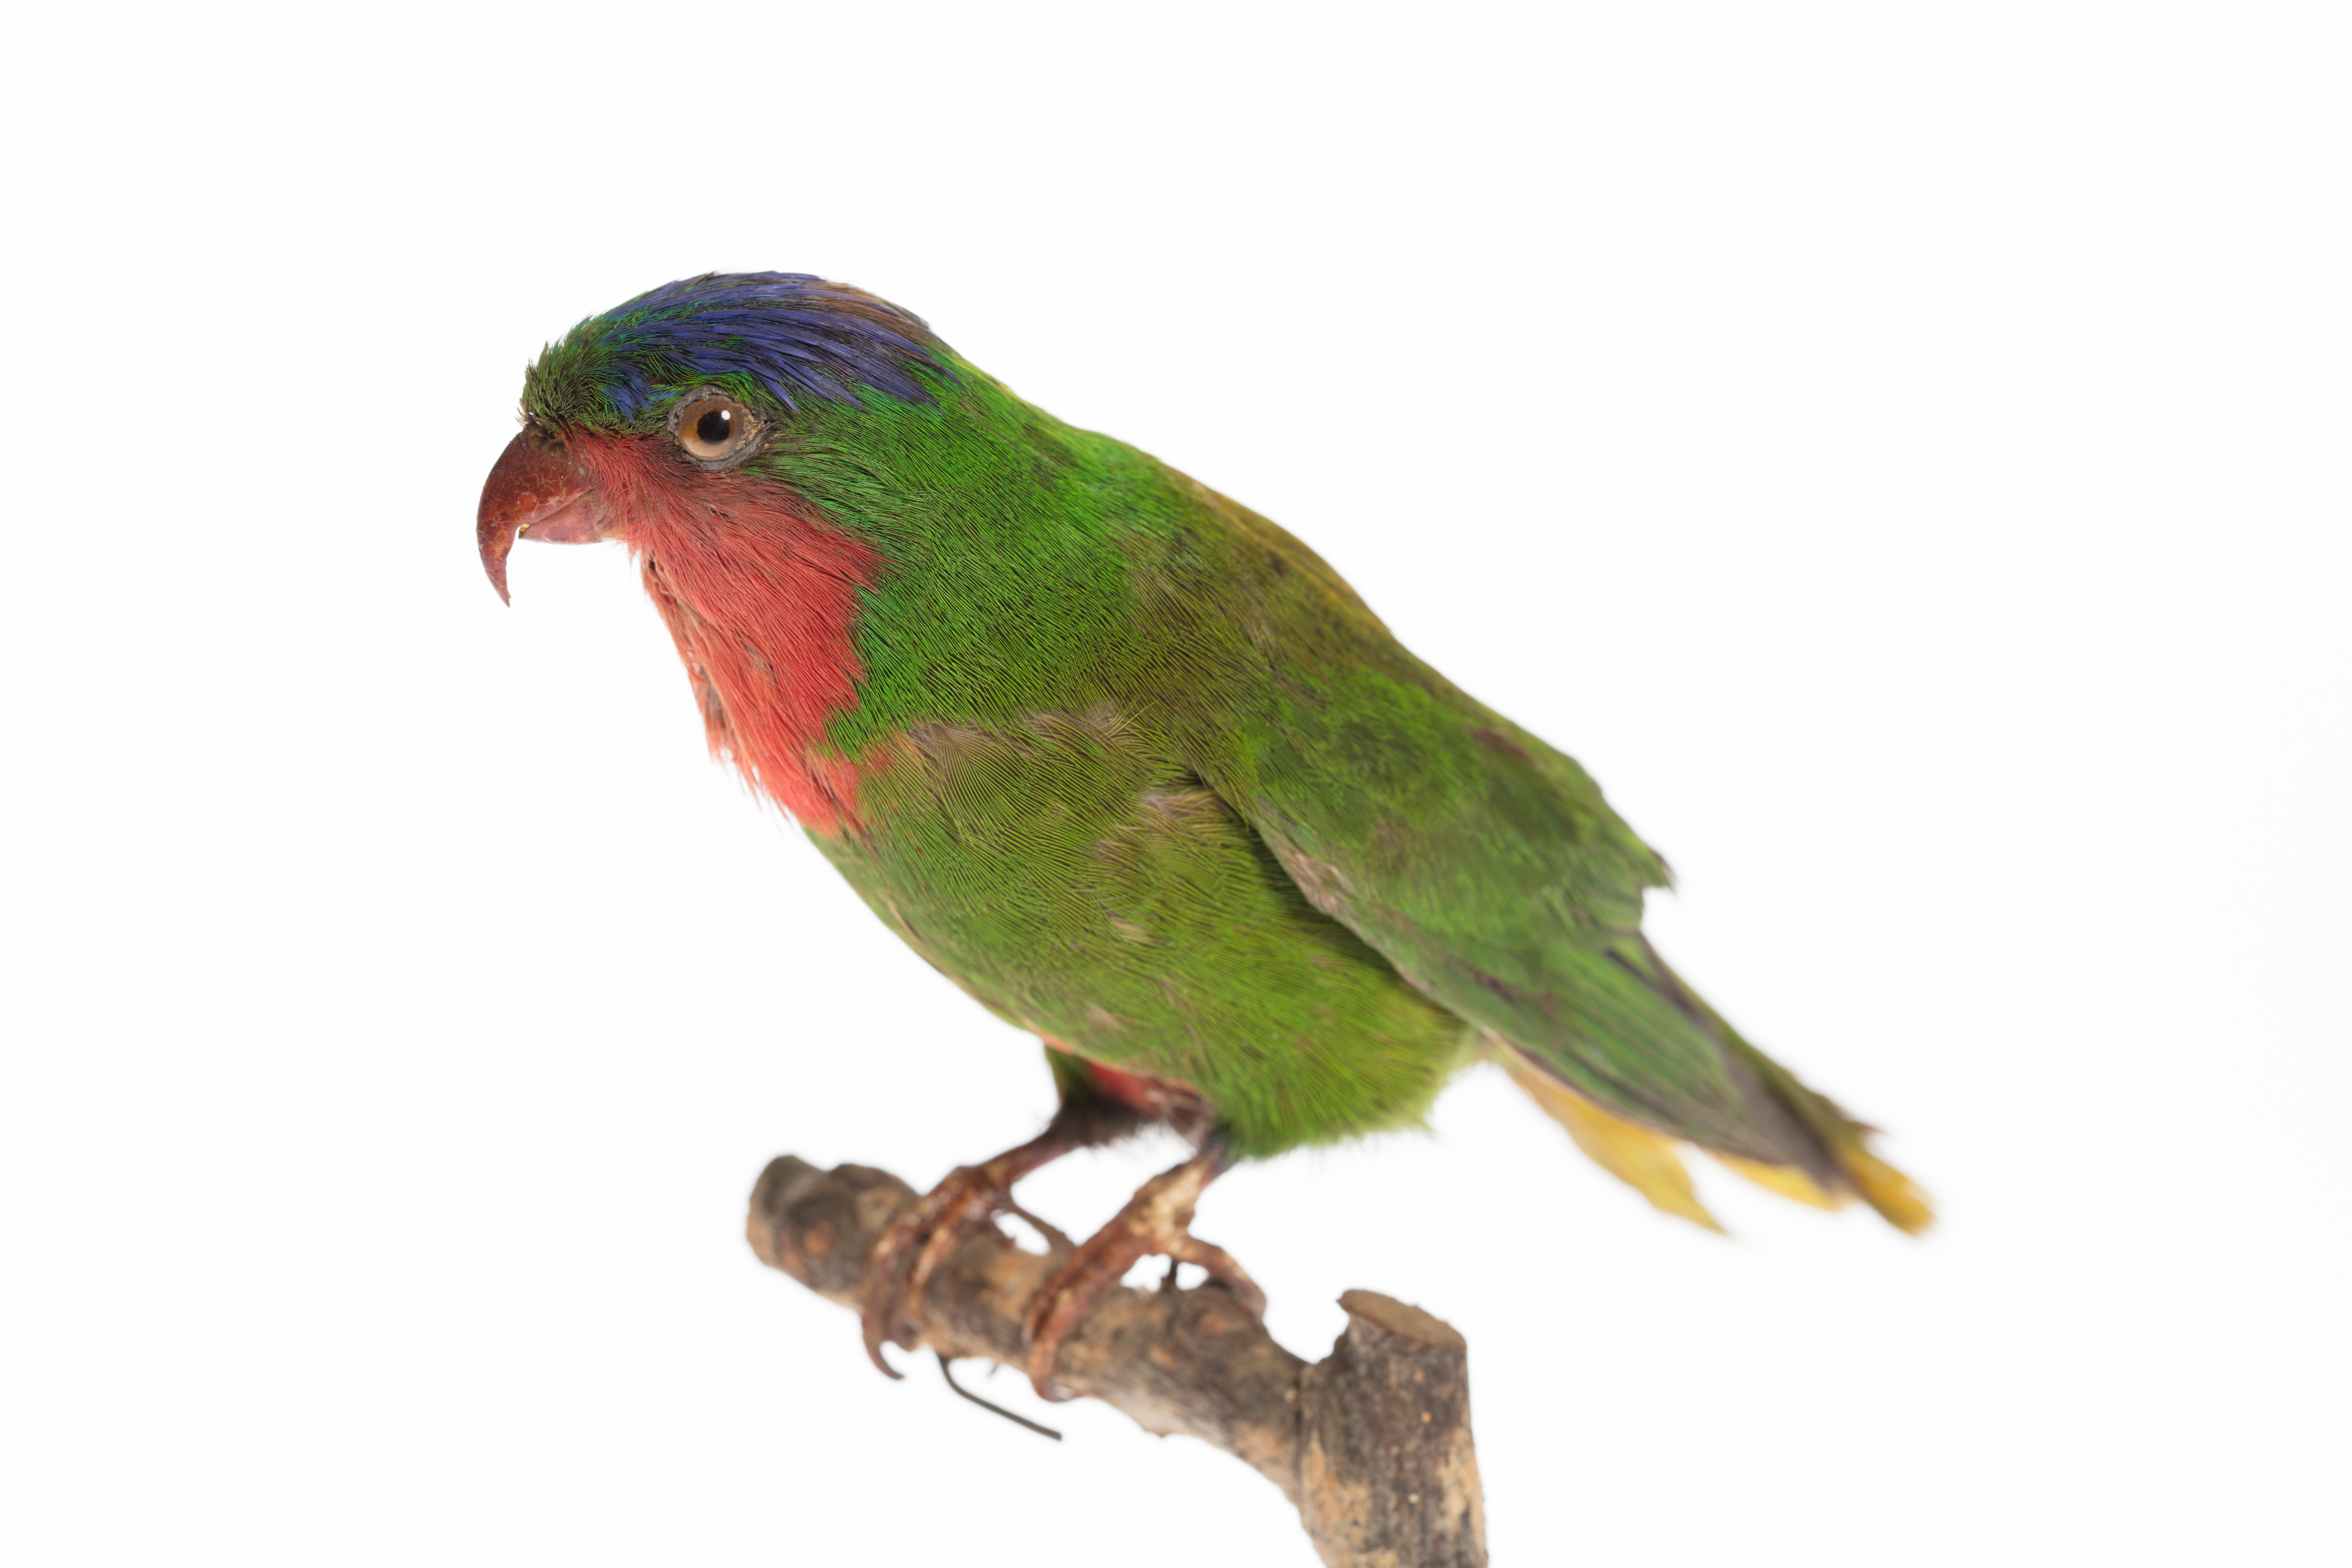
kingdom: Animalia
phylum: Chordata
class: Aves
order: Psittaciformes
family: Psittacidae
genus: Vini
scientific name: Vini australis
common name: Blue-crowned lorikeet
